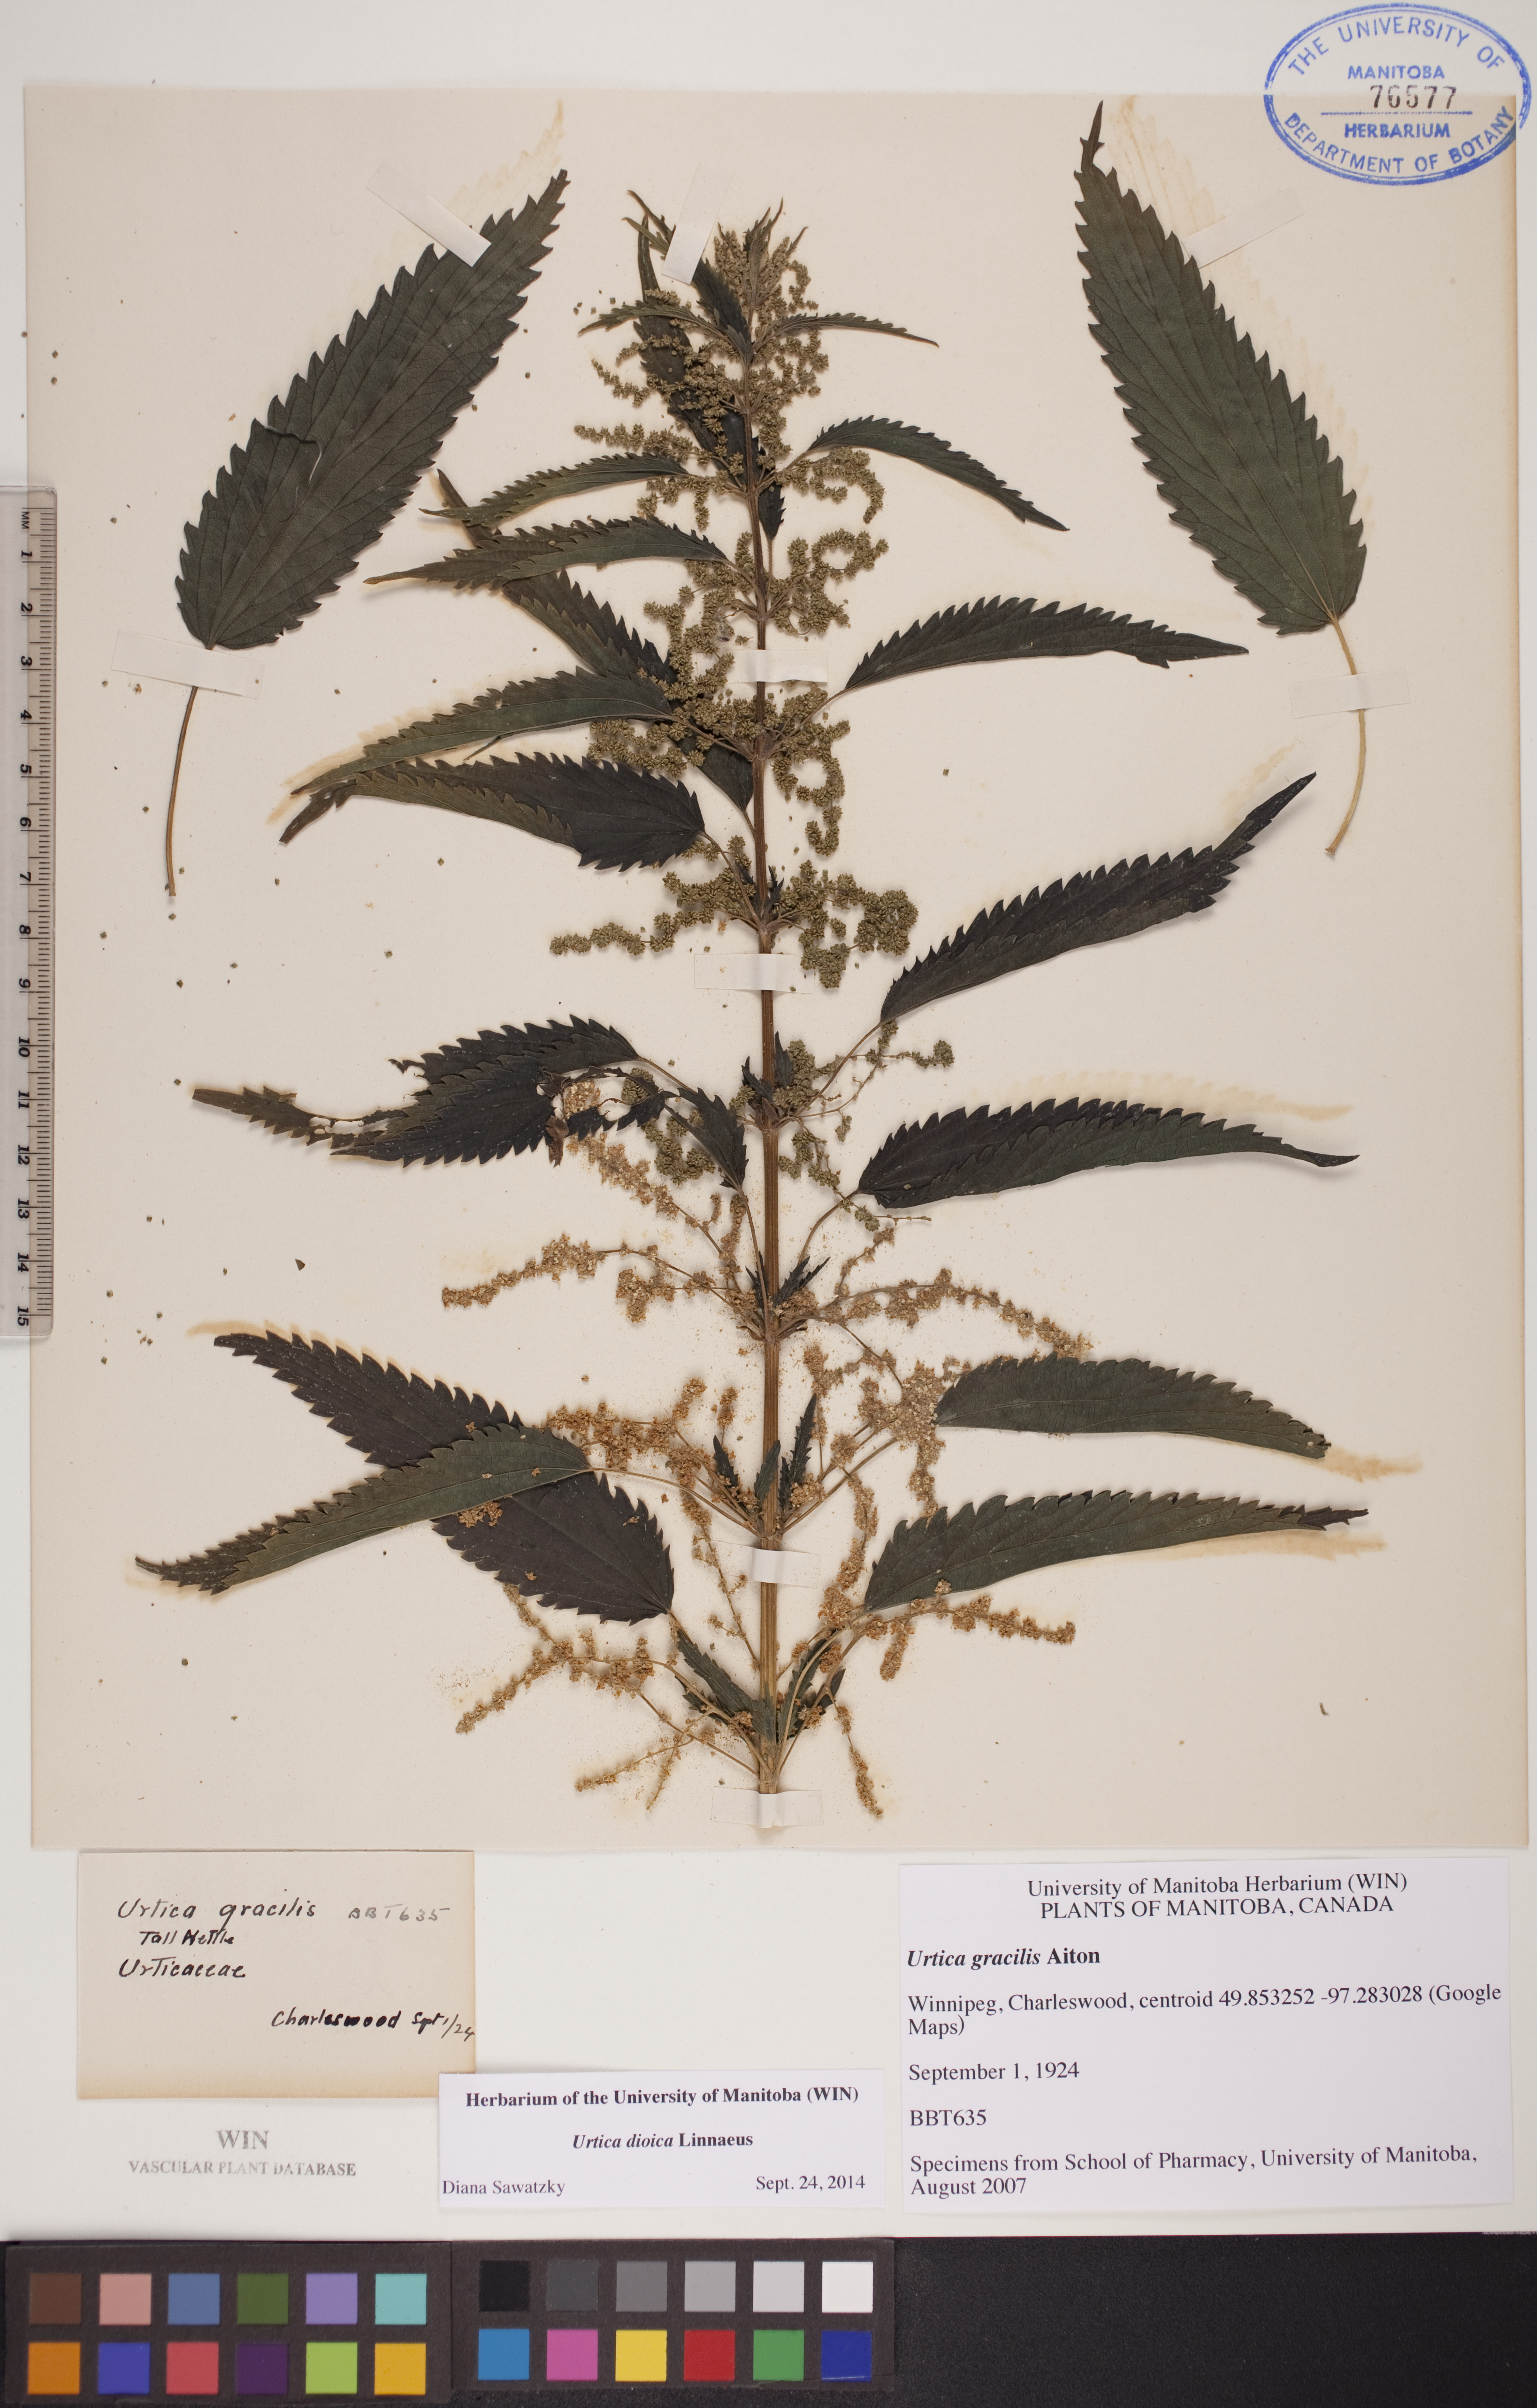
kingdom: Plantae
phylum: Tracheophyta
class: Magnoliopsida
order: Rosales
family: Urticaceae
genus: Urtica
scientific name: Urtica dioica
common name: Common nettle
